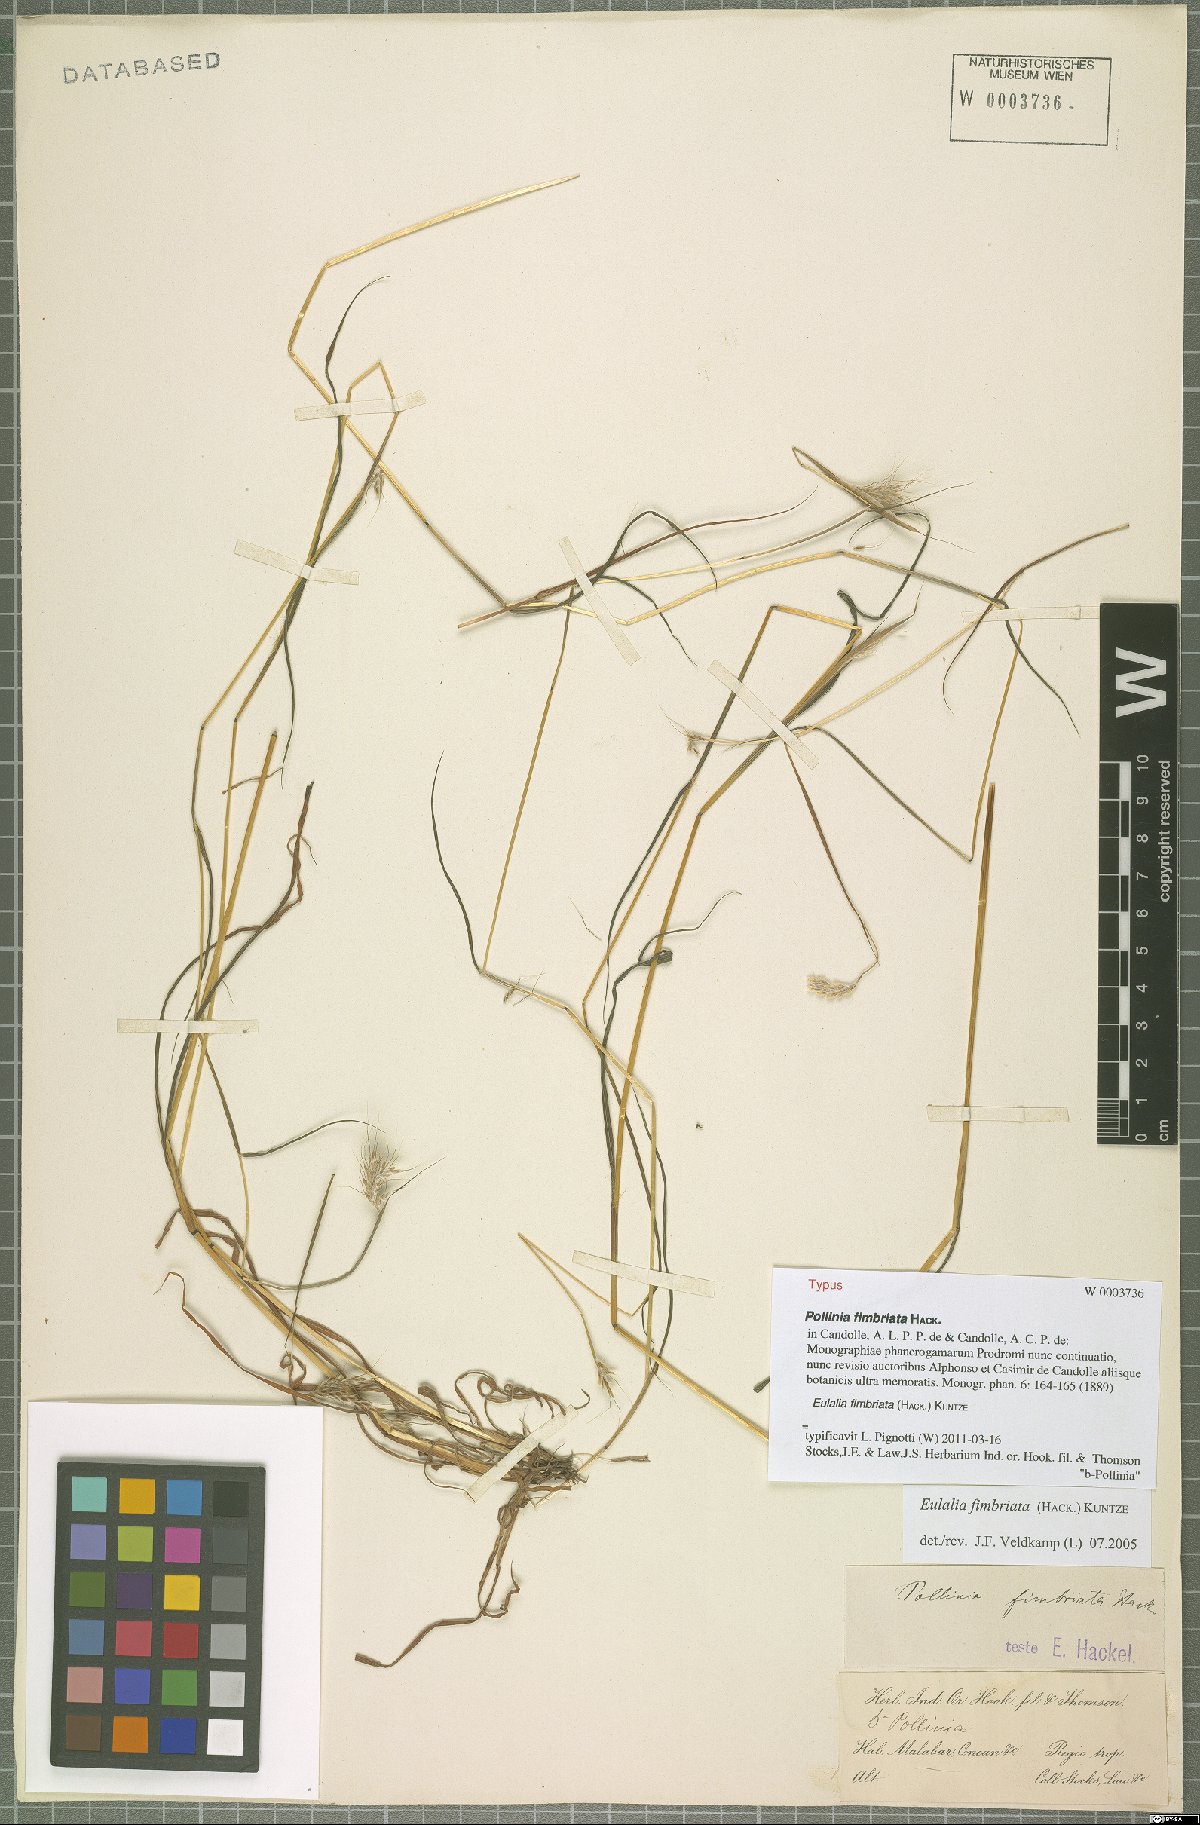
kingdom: Plantae
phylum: Tracheophyta
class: Liliopsida
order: Poales
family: Poaceae
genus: Eulalia
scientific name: Eulalia conjugata
